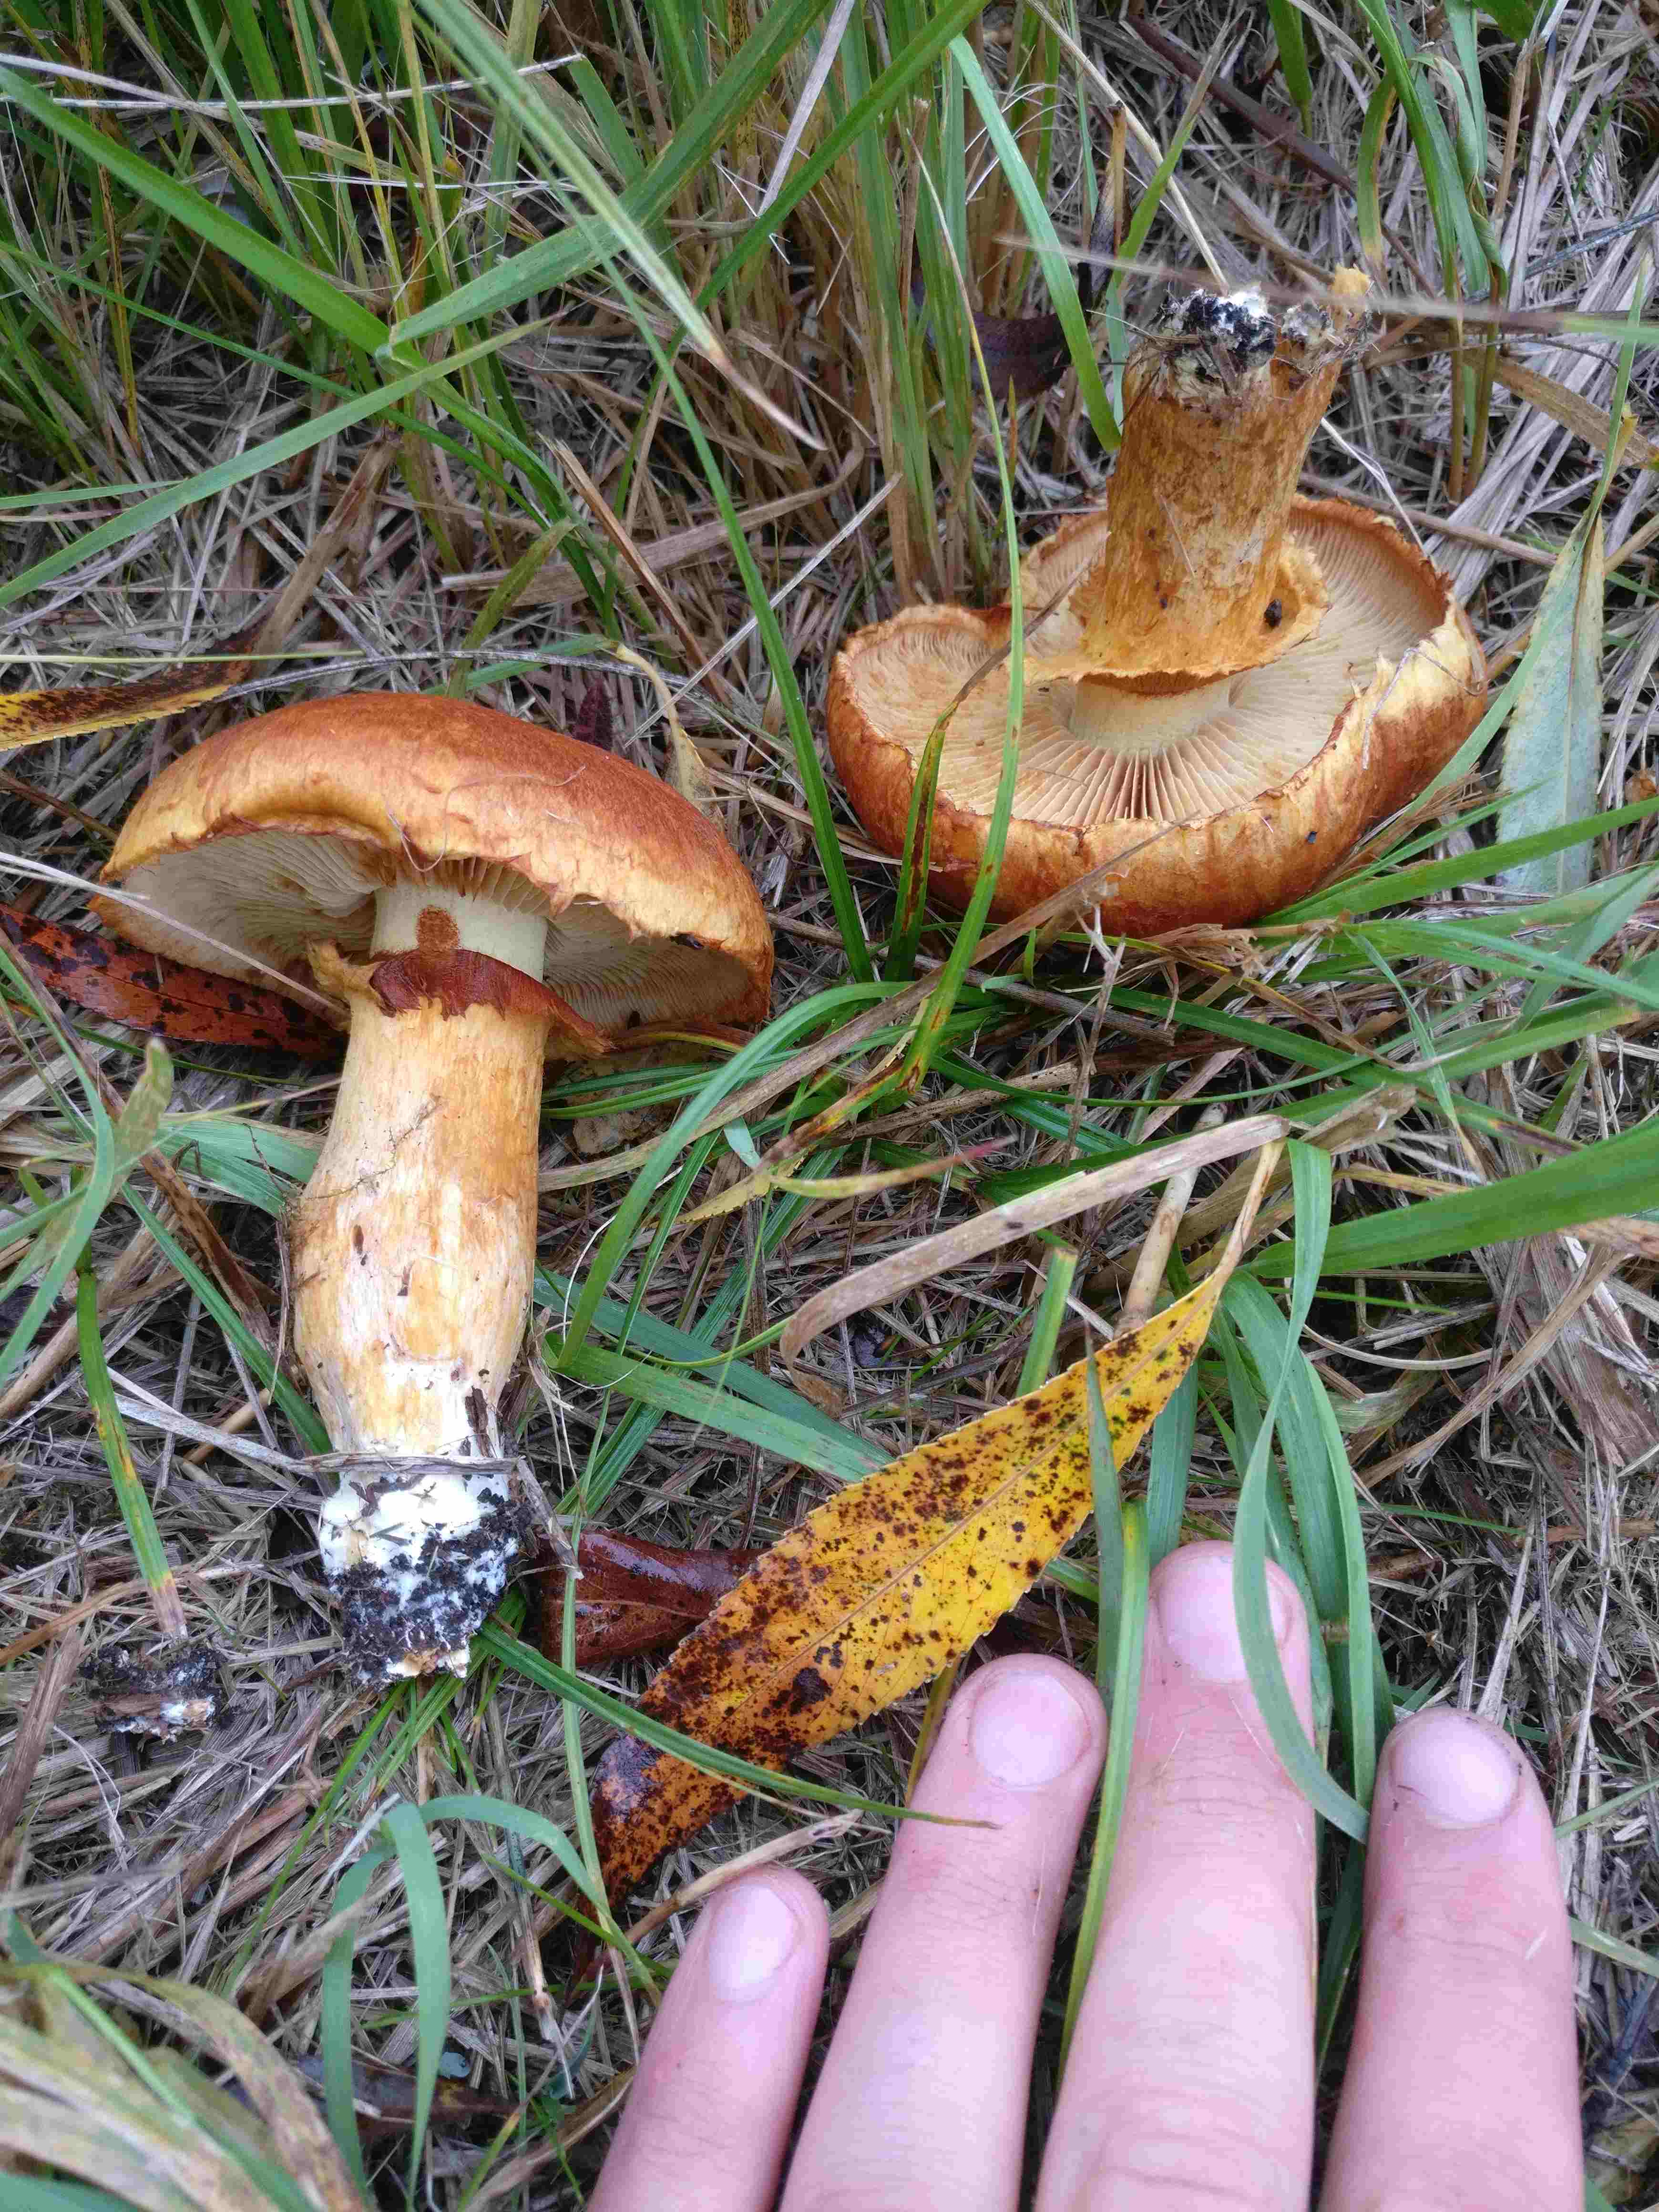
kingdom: Fungi
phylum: Basidiomycota
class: Agaricomycetes
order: Agaricales
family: Hymenogastraceae
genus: Gymnopilus
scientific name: Gymnopilus spectabilis
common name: fibret flammehat
